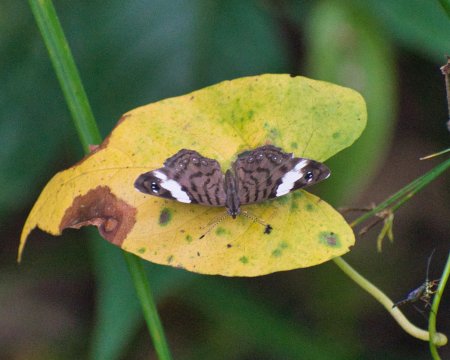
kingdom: Animalia
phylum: Arthropoda
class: Insecta
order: Lepidoptera
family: Nymphalidae
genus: Ectima
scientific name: Ectima erycinoides
